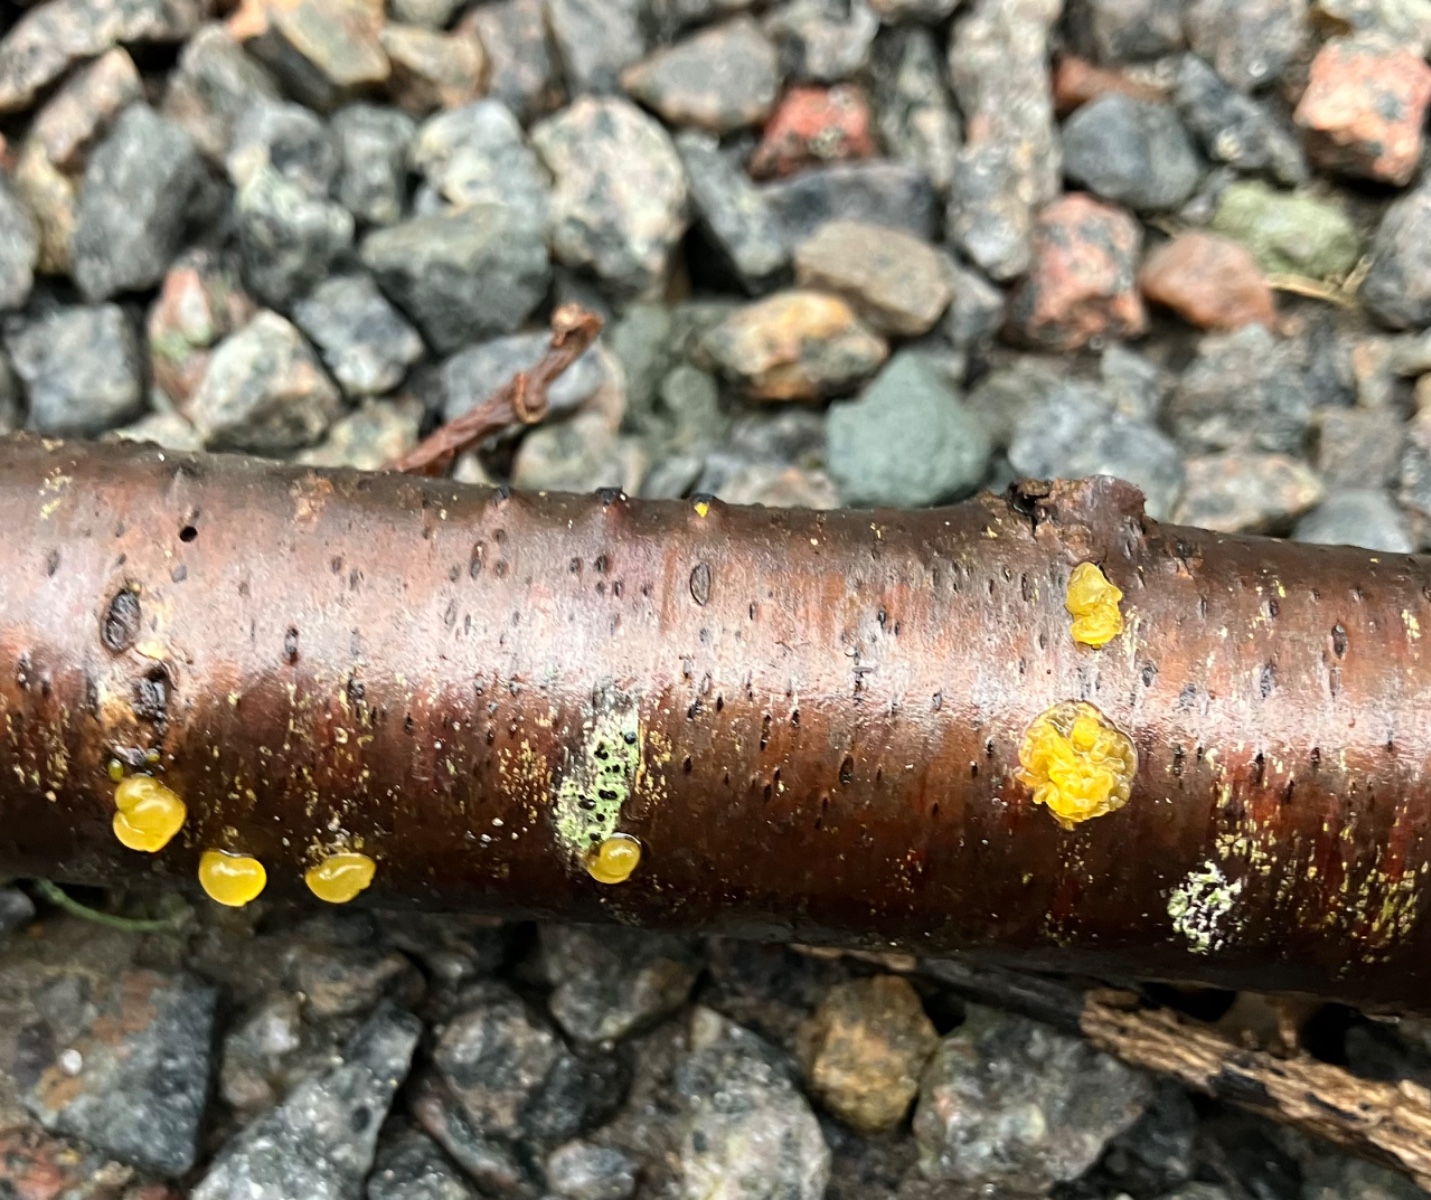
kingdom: Fungi
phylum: Basidiomycota
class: Dacrymycetes
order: Dacrymycetales
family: Dacrymycetaceae
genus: Dacrymyces
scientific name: Dacrymyces lacrymalis
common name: rynket tåresvamp
